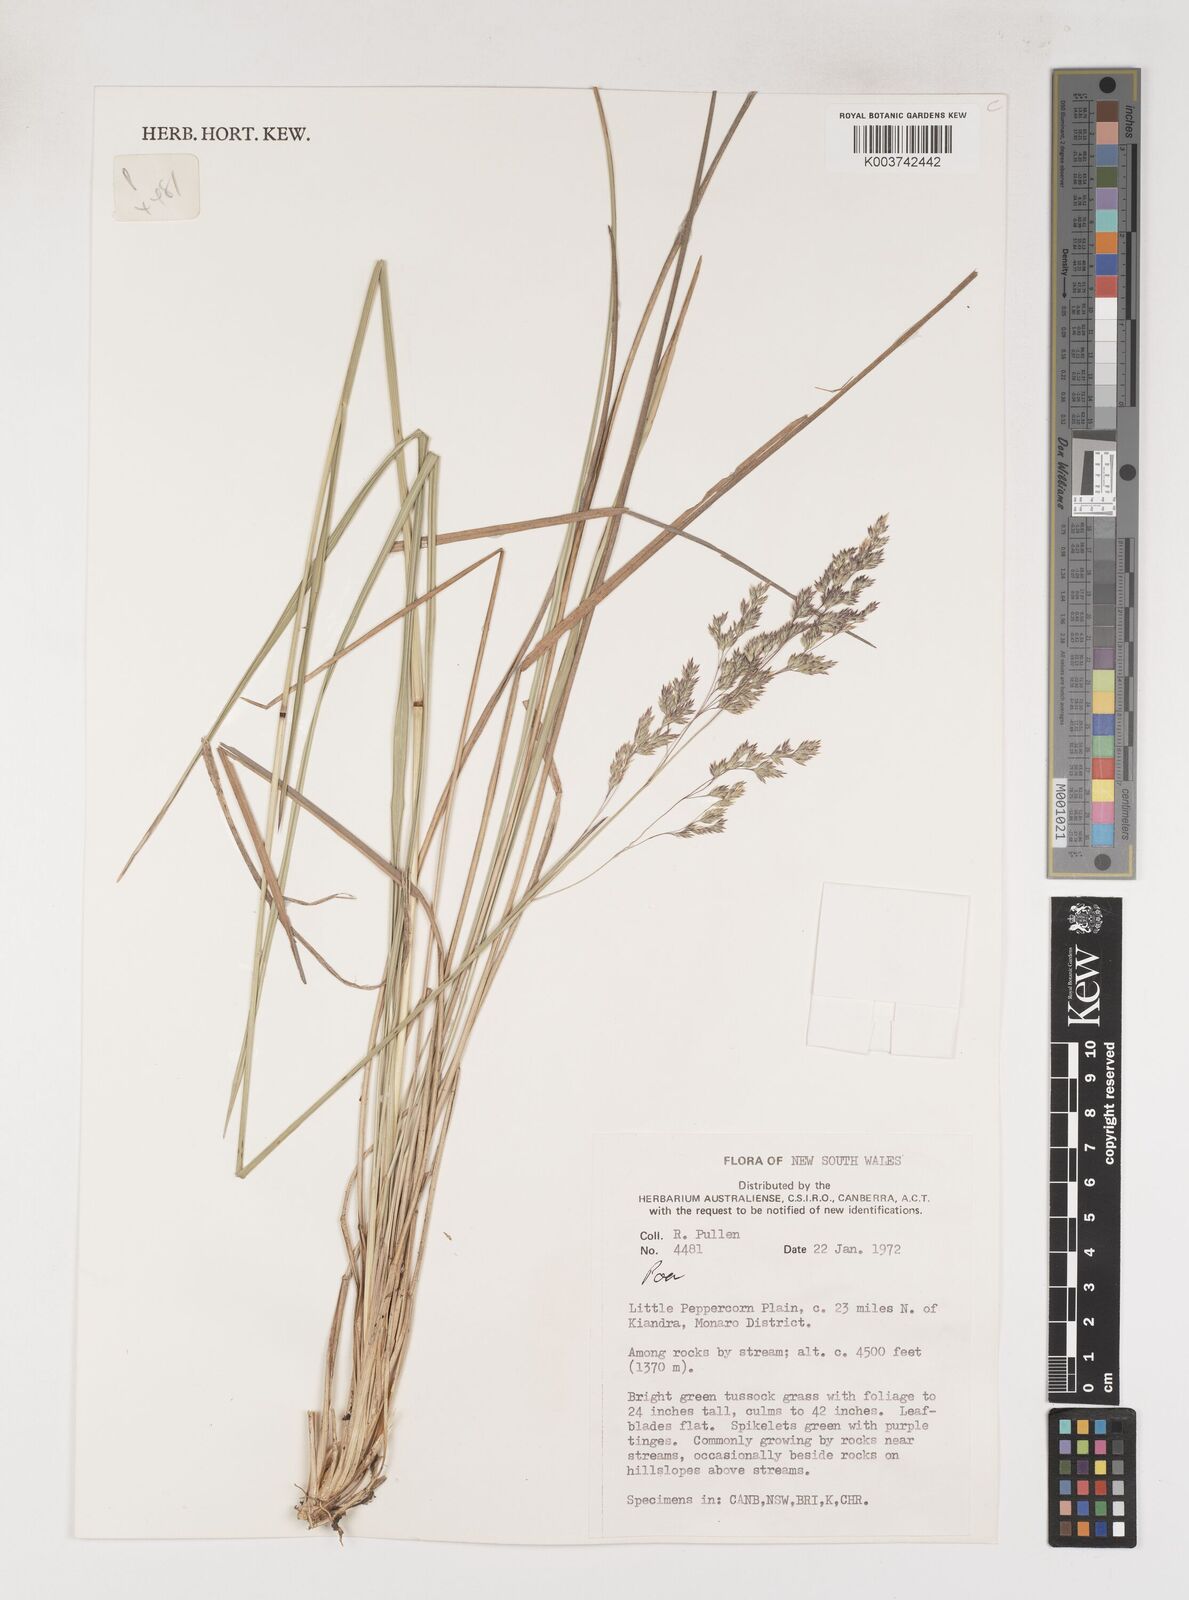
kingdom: Plantae
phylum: Tracheophyta
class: Liliopsida
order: Poales
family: Poaceae
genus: Poa
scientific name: Poa
